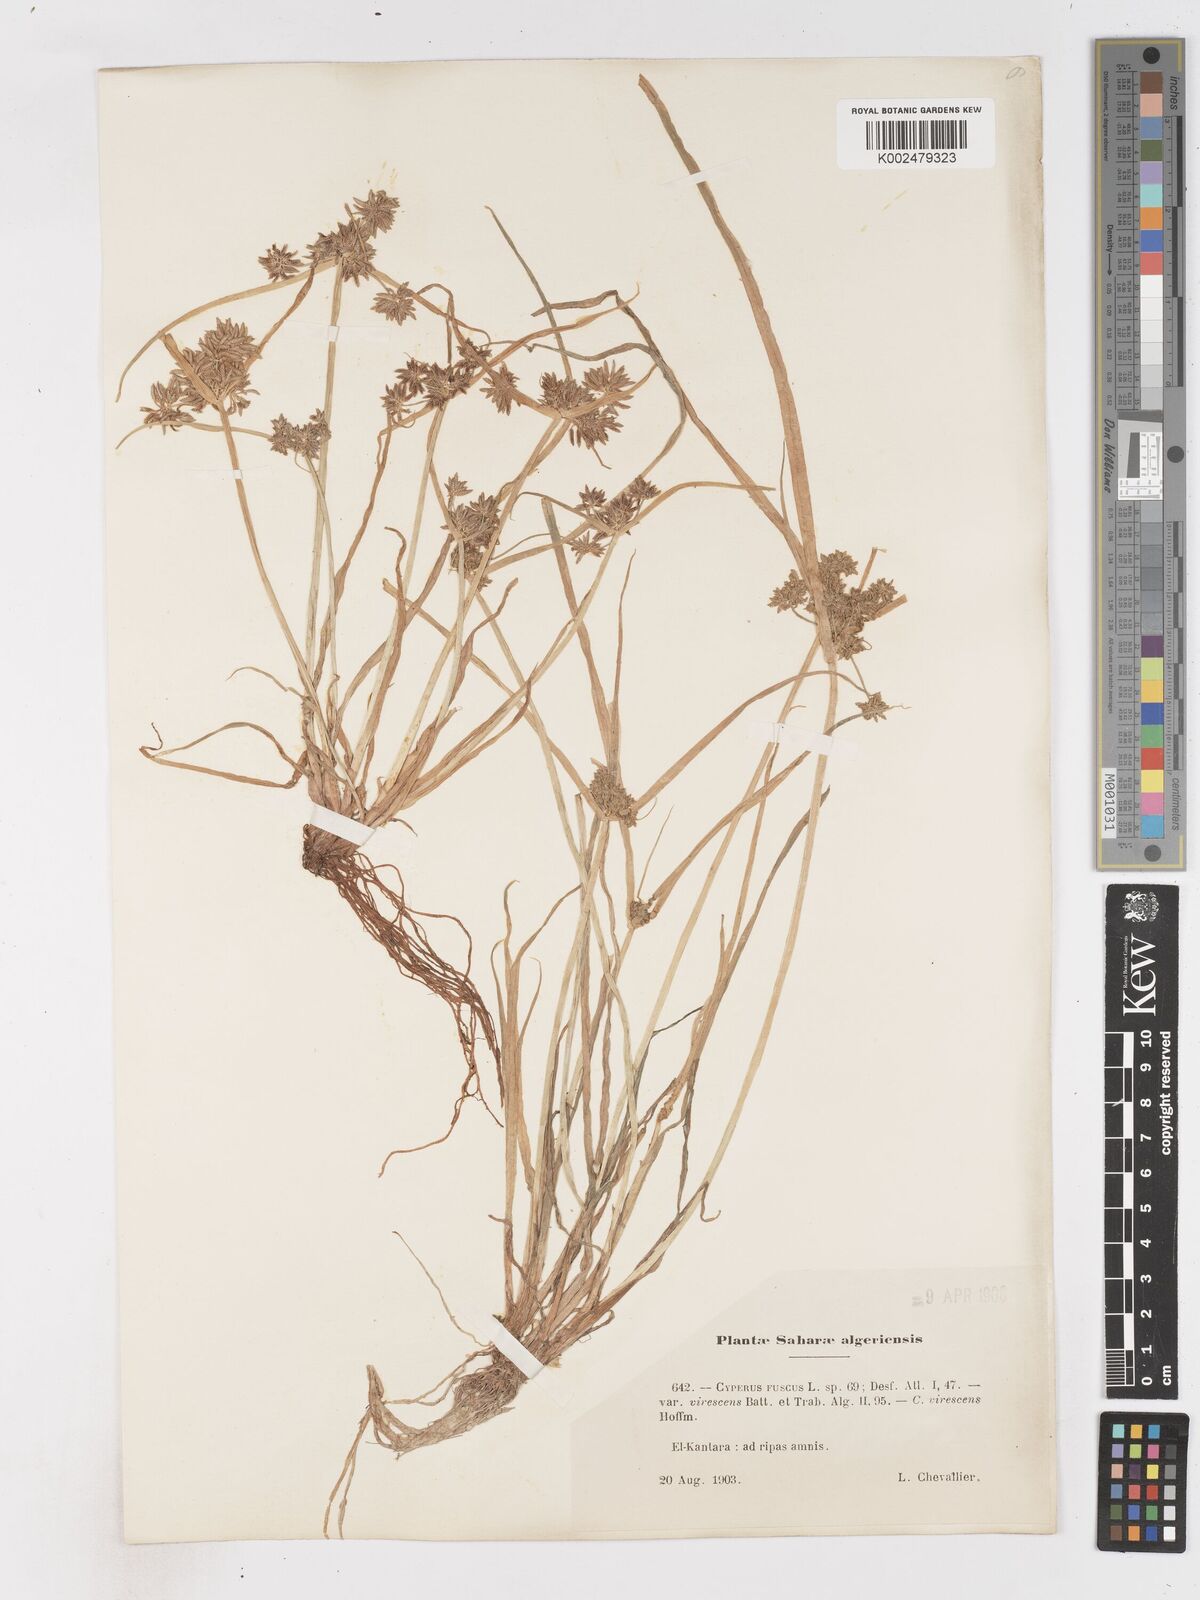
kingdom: Plantae
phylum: Tracheophyta
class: Liliopsida
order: Poales
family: Cyperaceae
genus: Cyperus
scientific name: Cyperus fuscus
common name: Brown galingale
